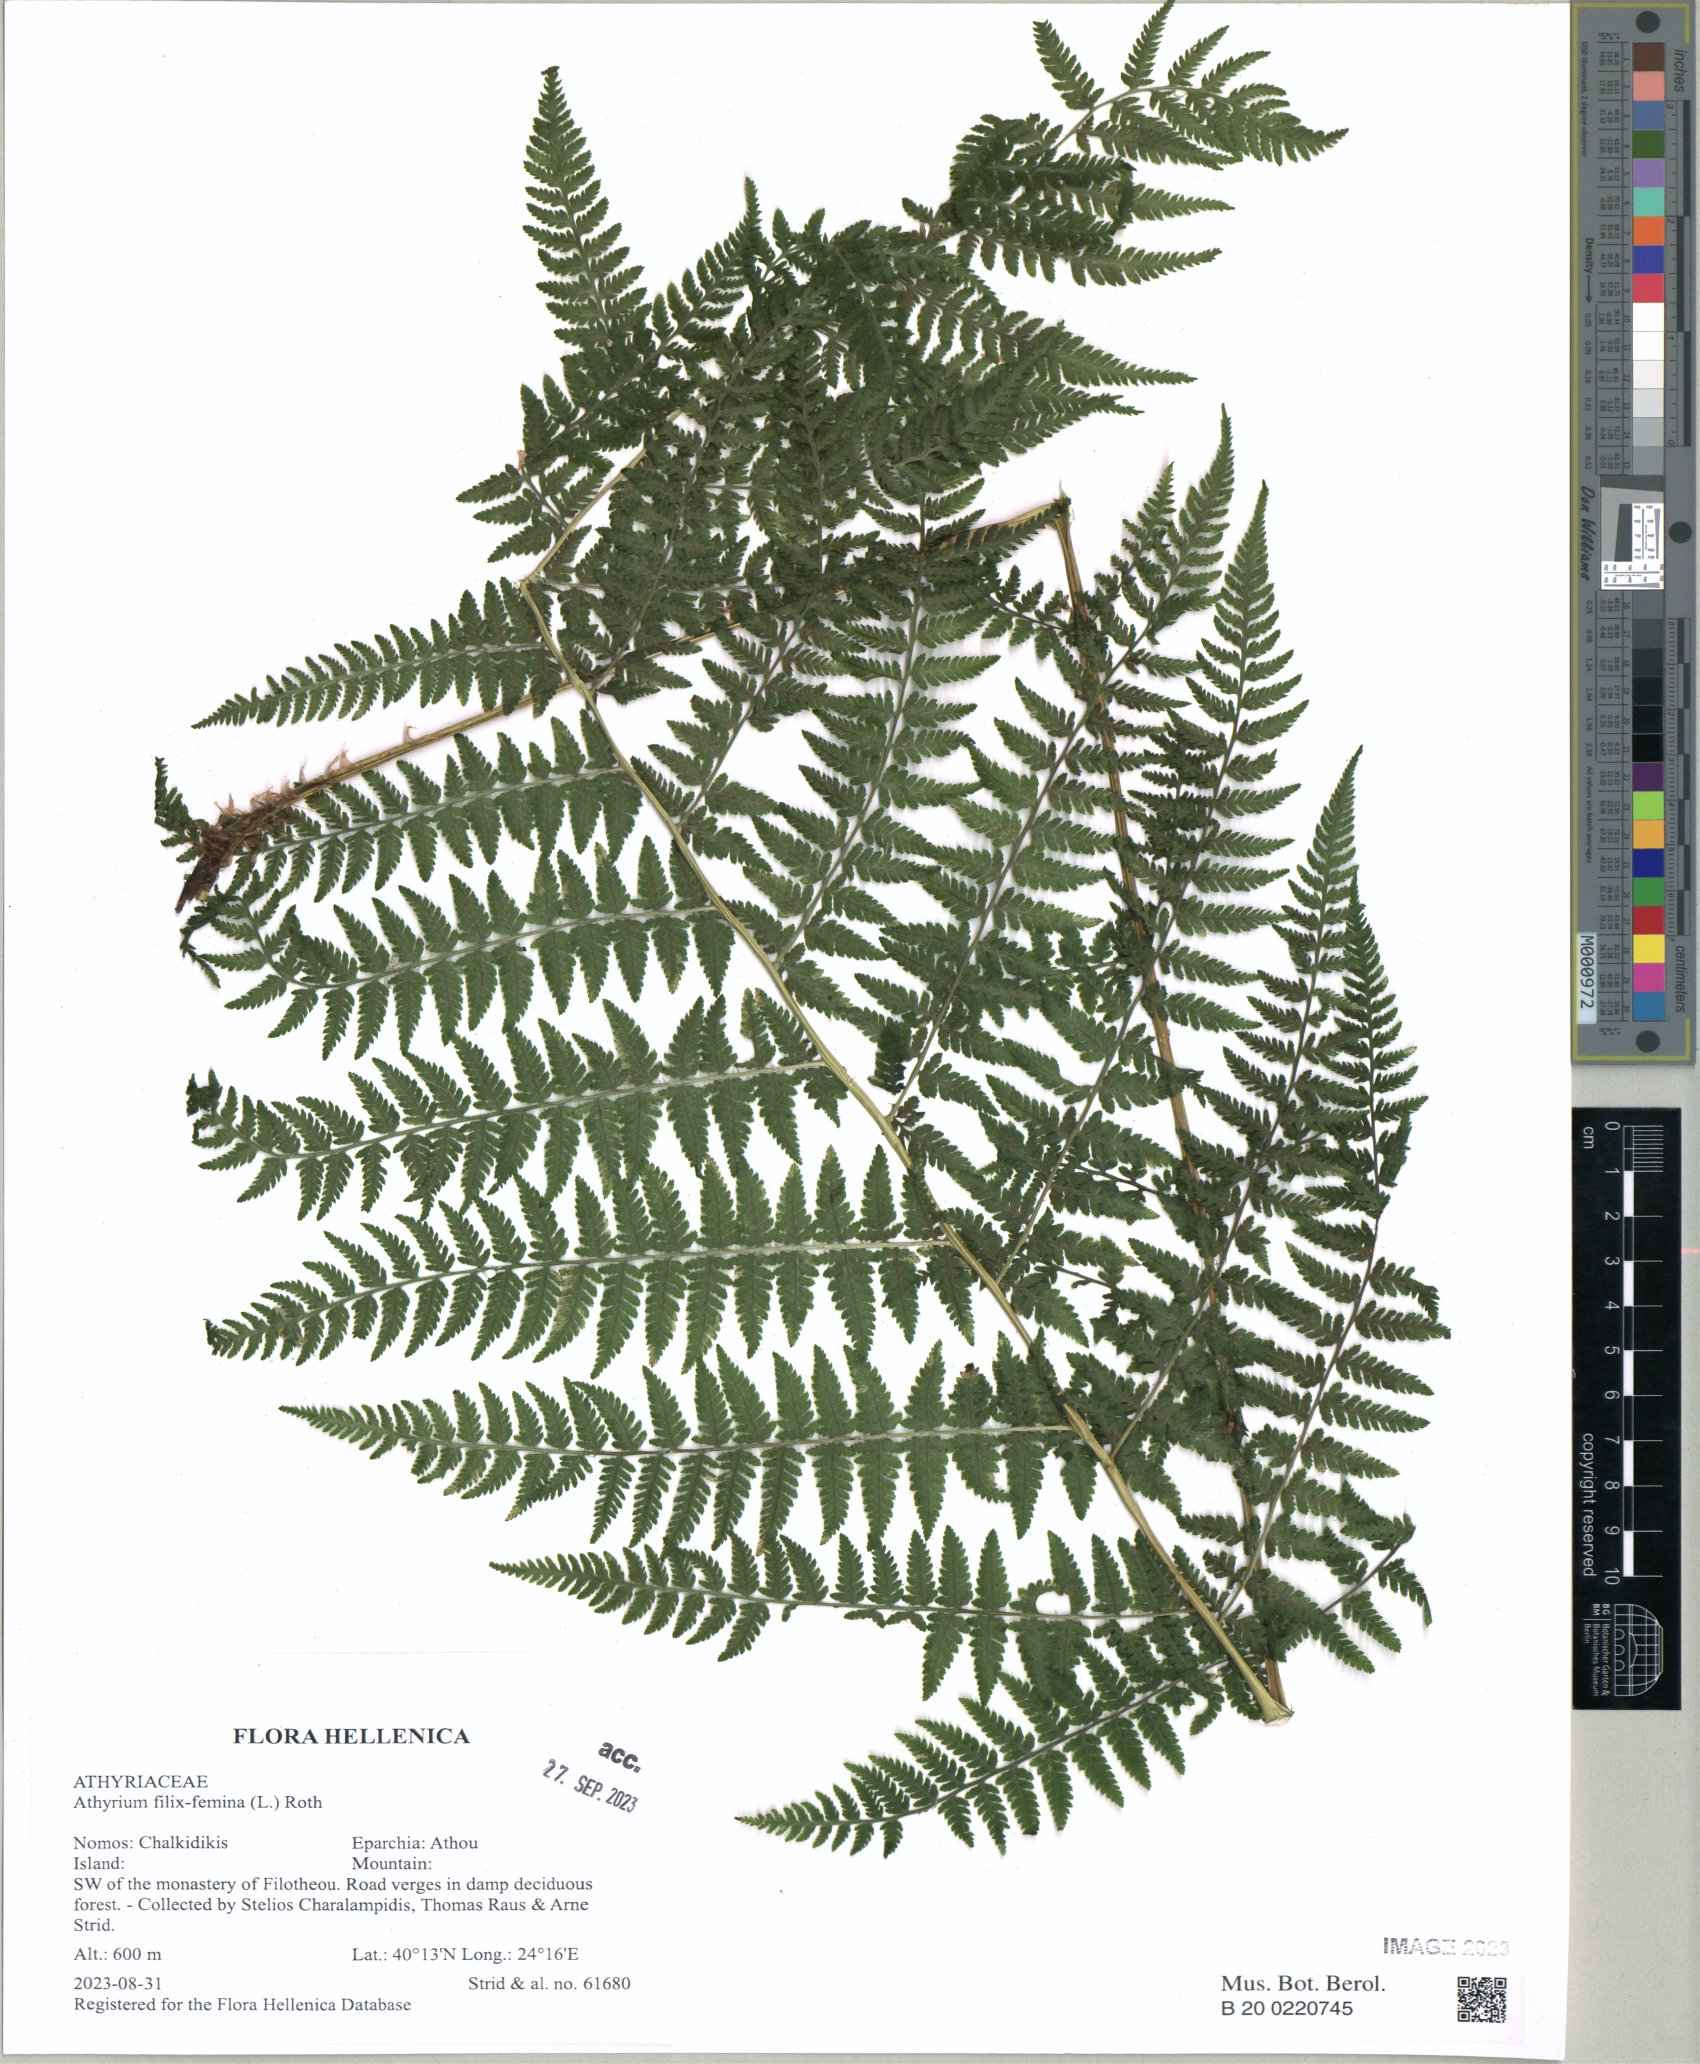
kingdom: Plantae
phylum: Tracheophyta
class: Polypodiopsida
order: Polypodiales
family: Athyriaceae
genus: Athyrium
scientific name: Athyrium filix-femina
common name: Lady fern
